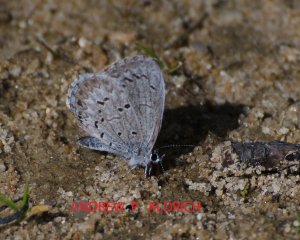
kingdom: Animalia
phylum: Arthropoda
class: Insecta
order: Lepidoptera
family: Lycaenidae
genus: Celastrina
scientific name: Celastrina lucia
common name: Northern Spring Azure
